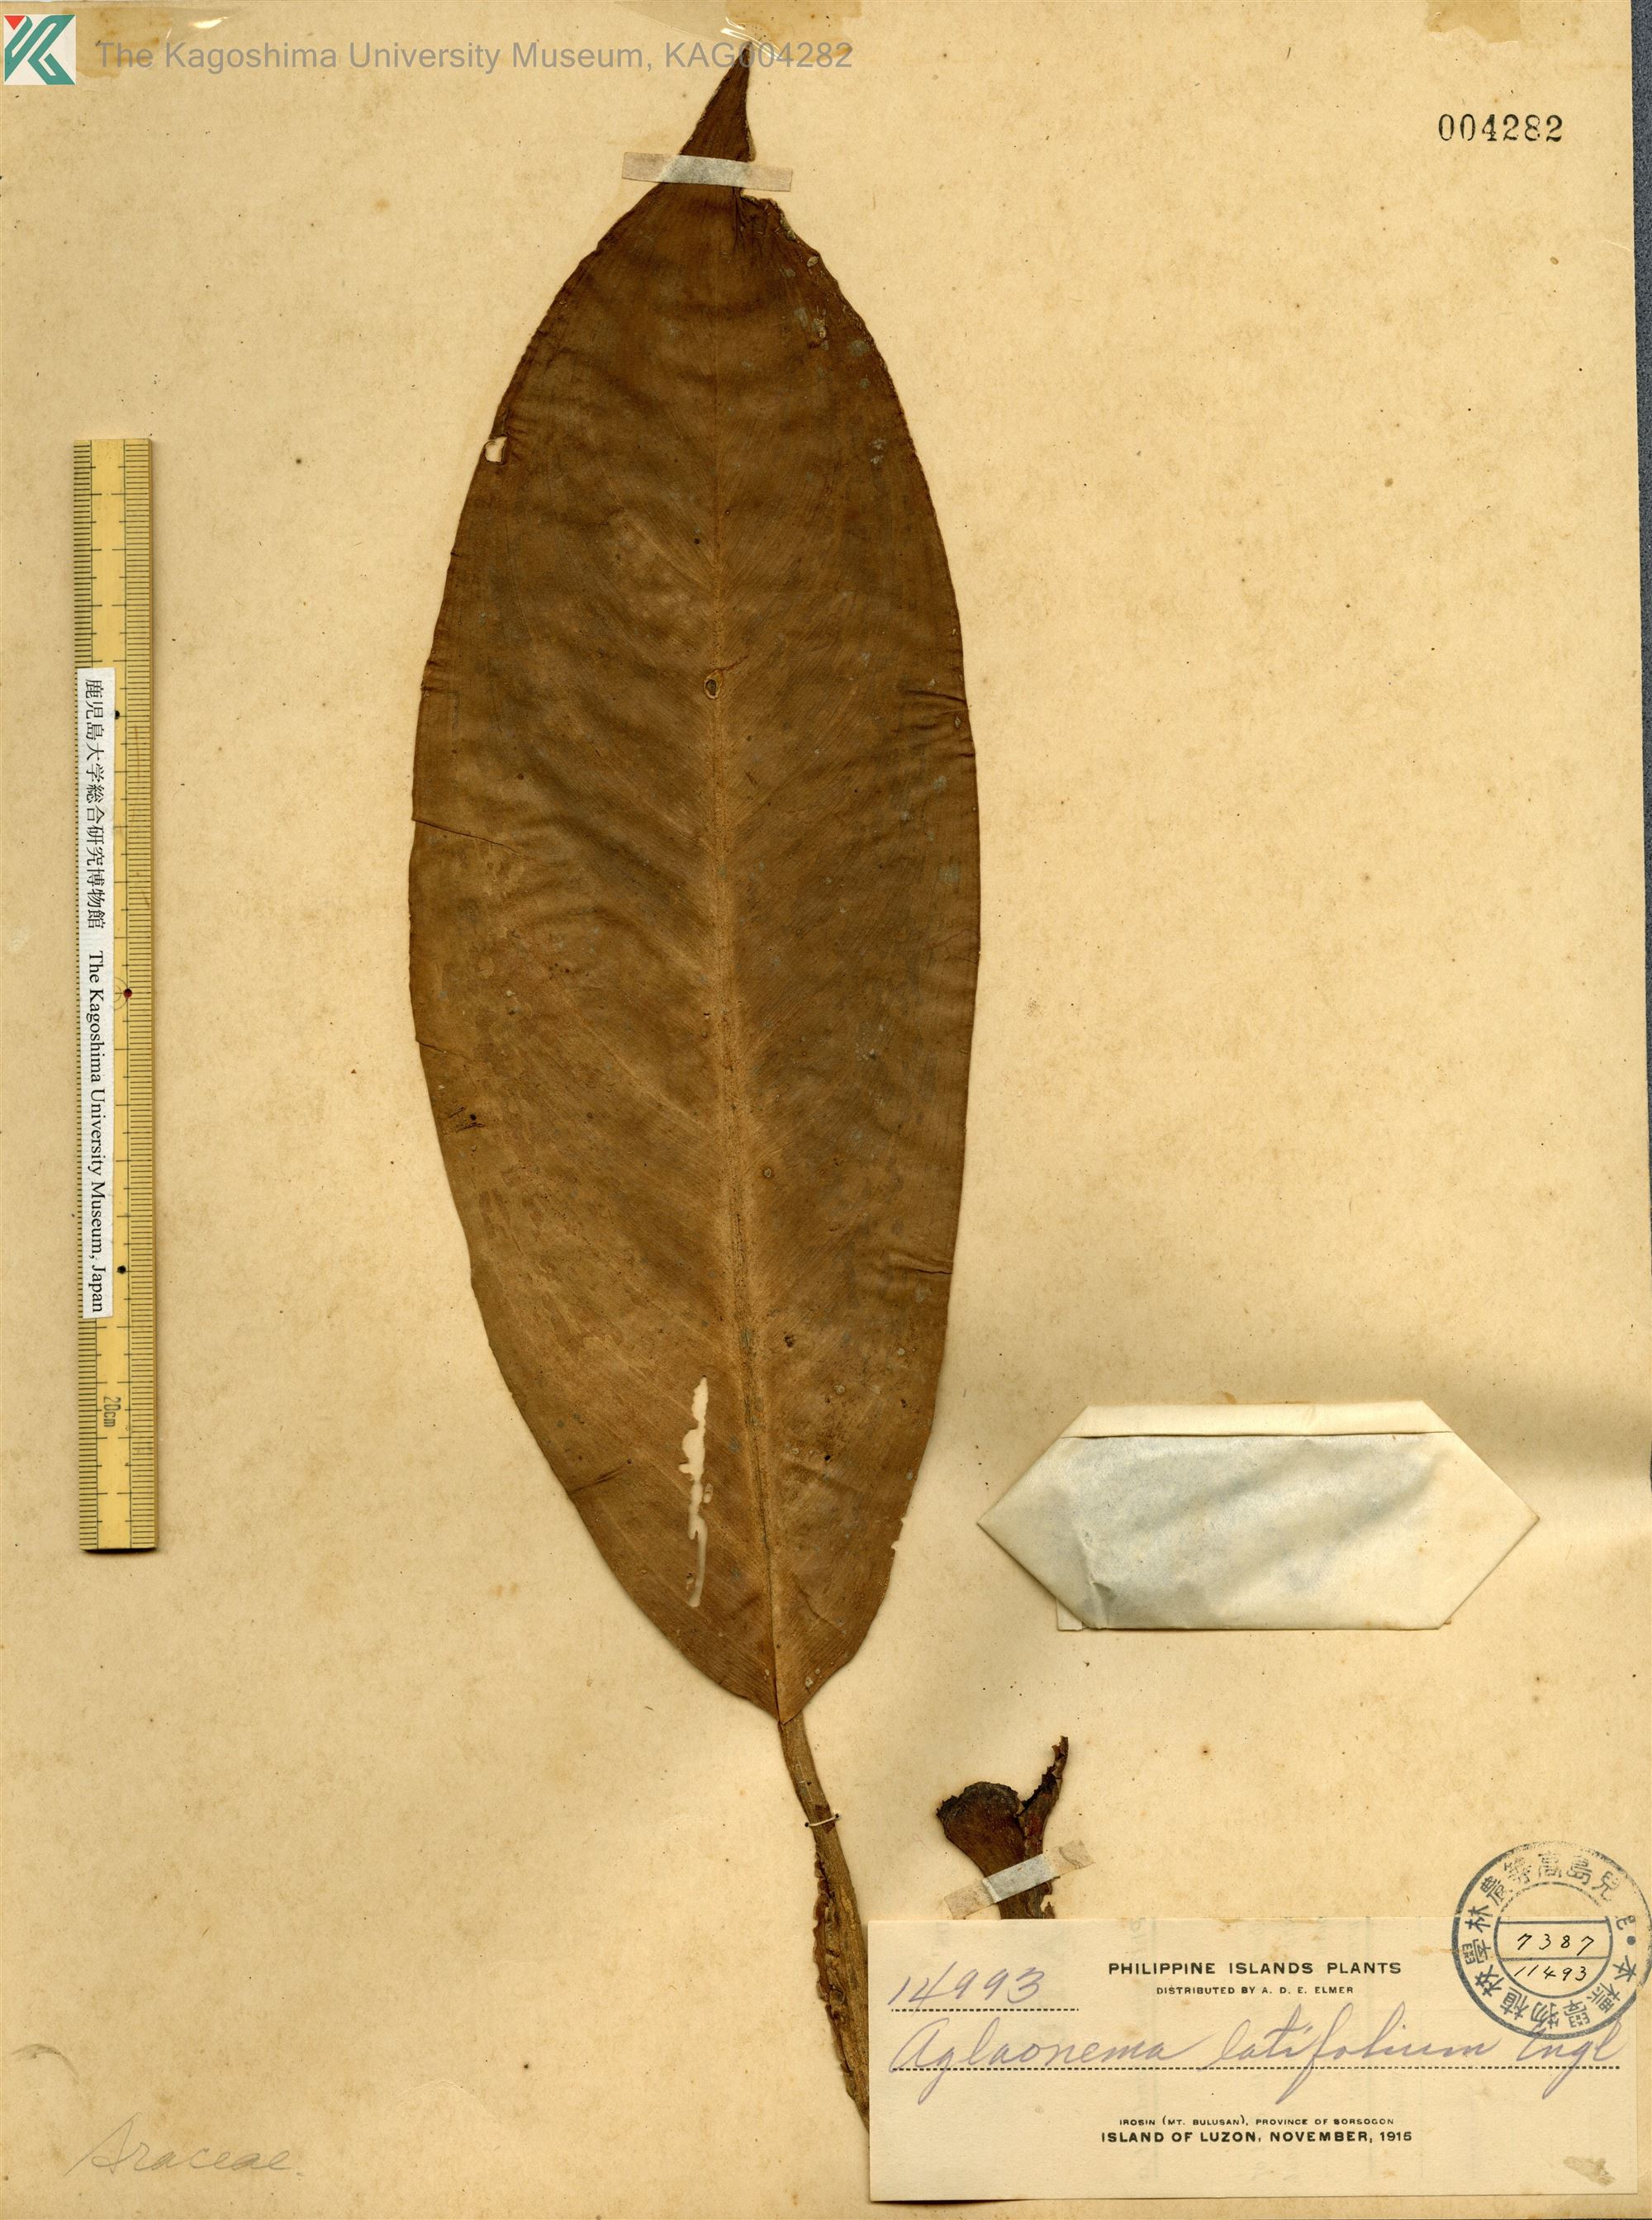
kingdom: Plantae
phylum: Tracheophyta
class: Liliopsida
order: Alismatales
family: Araceae
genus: Aglaonema
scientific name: Aglaonema philippinense
